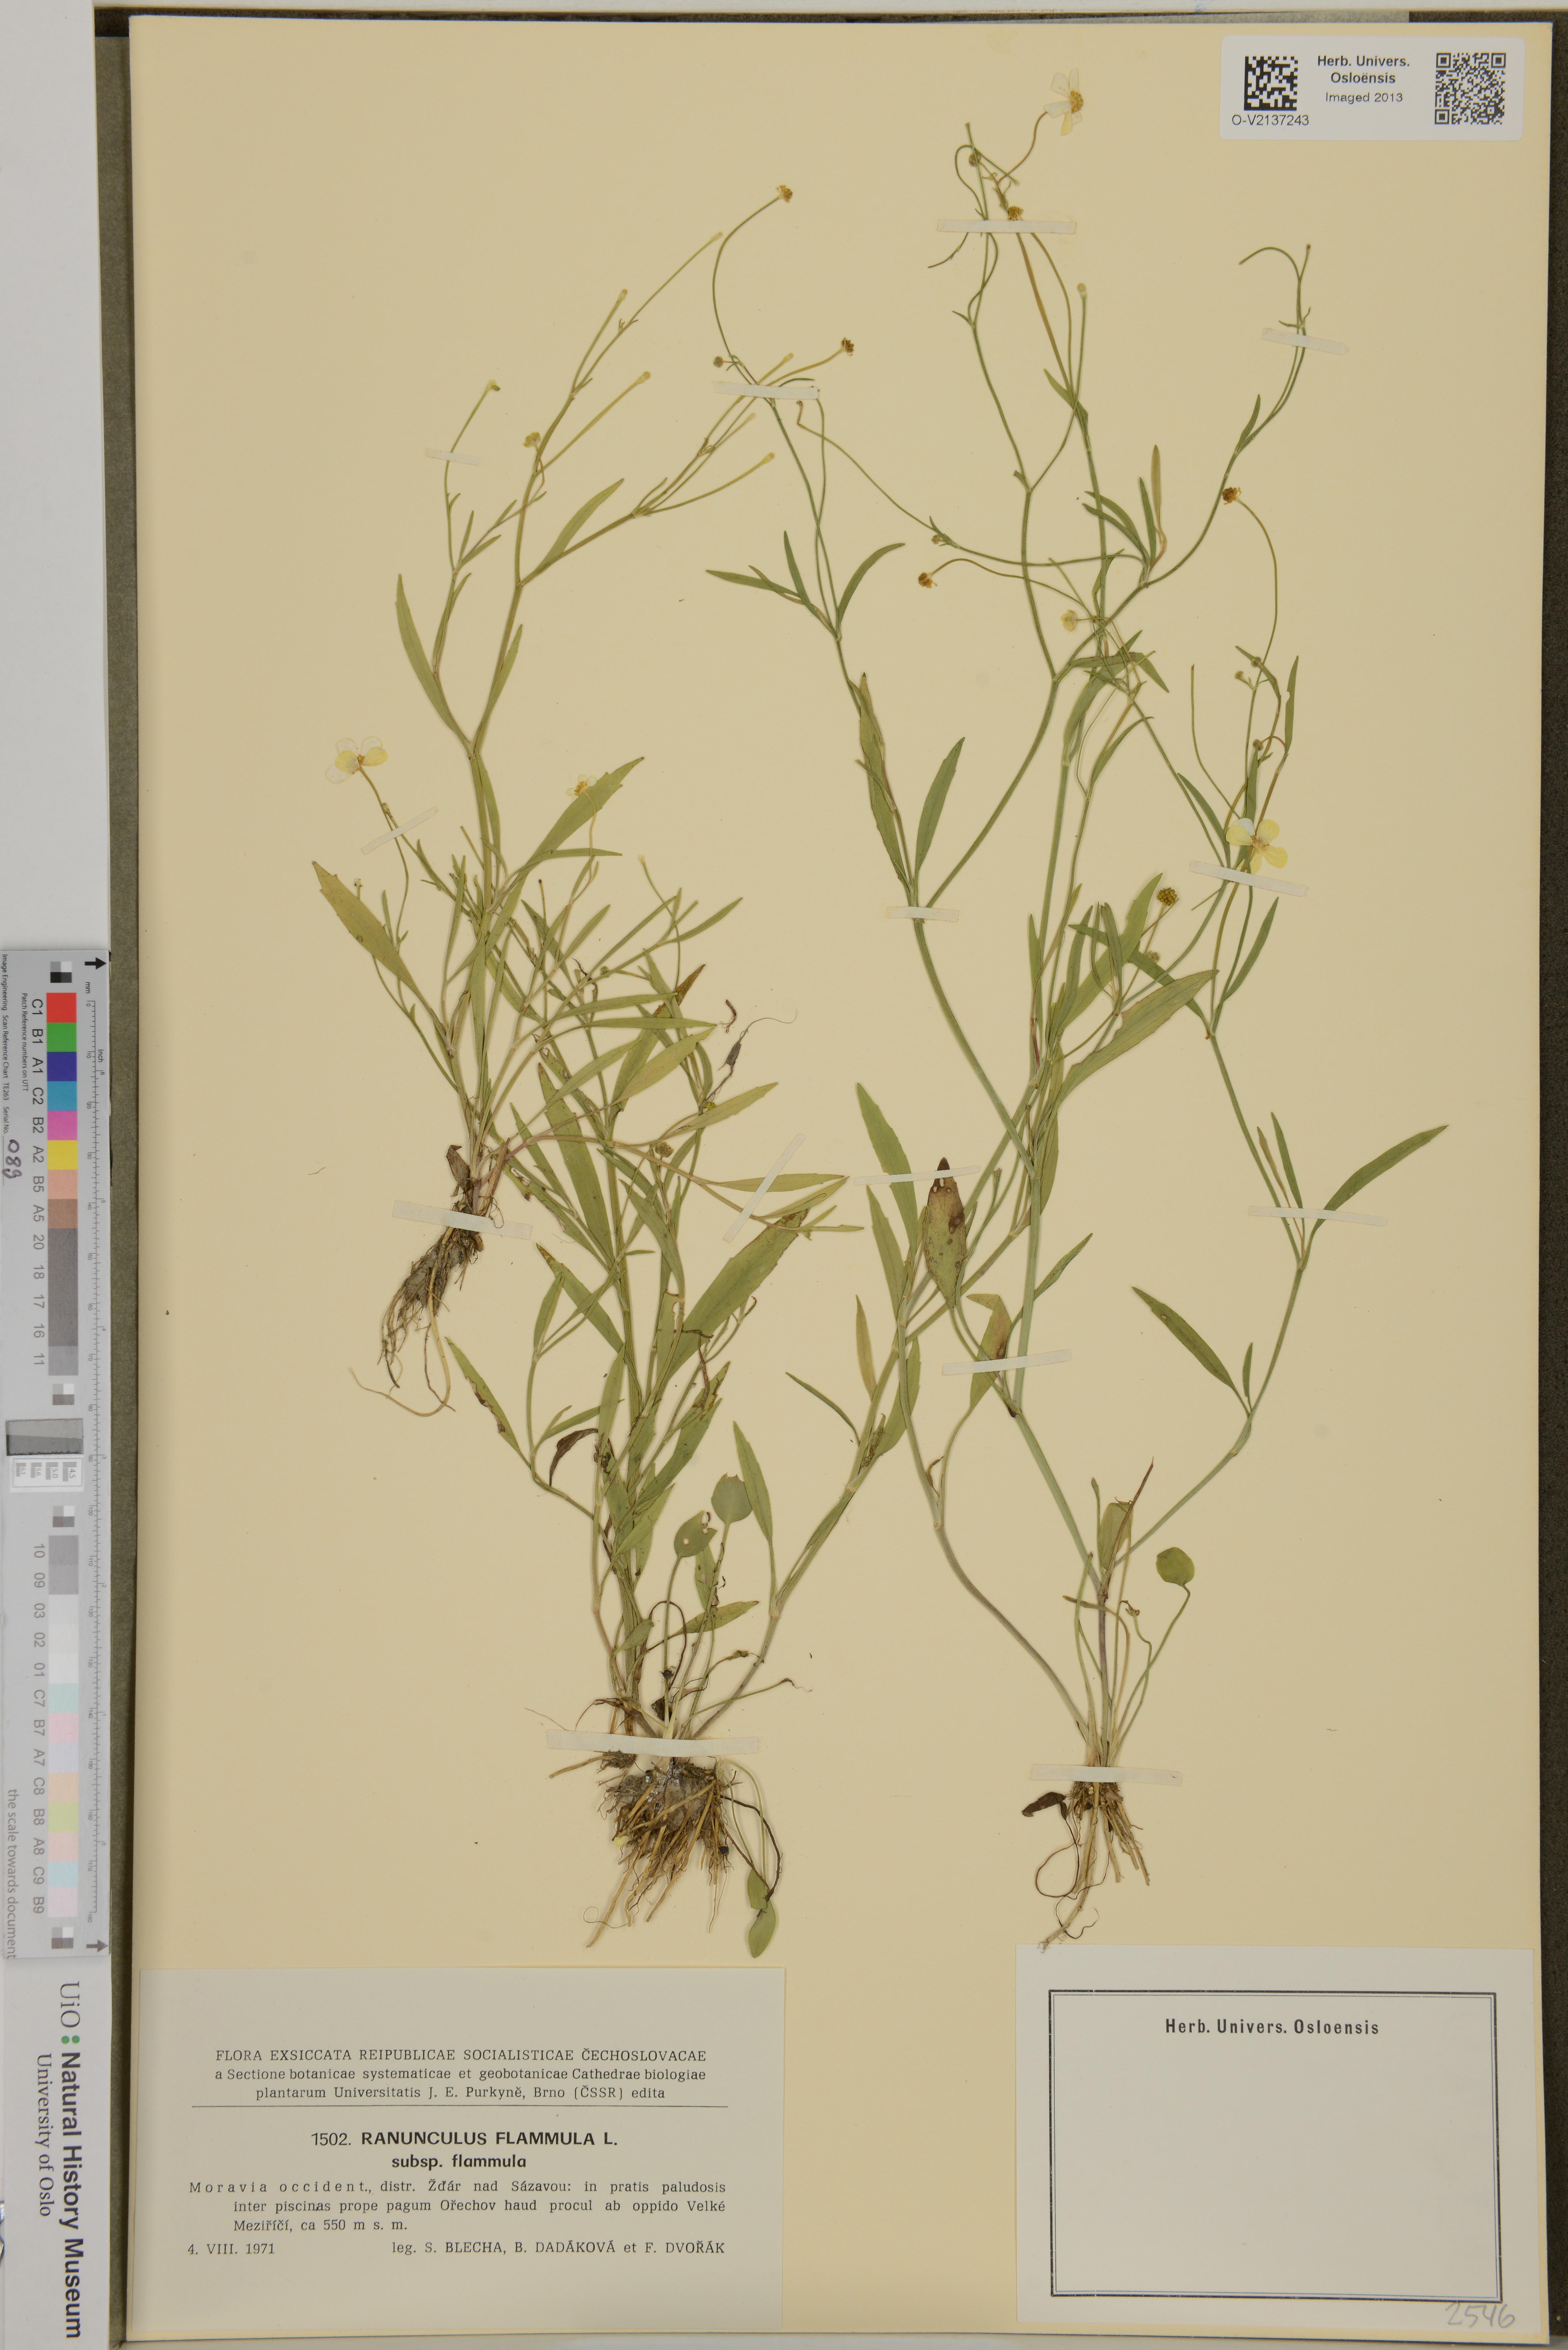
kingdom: Plantae
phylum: Tracheophyta
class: Magnoliopsida
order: Ranunculales
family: Ranunculaceae
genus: Ranunculus
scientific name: Ranunculus flammula
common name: Lesser spearwort
